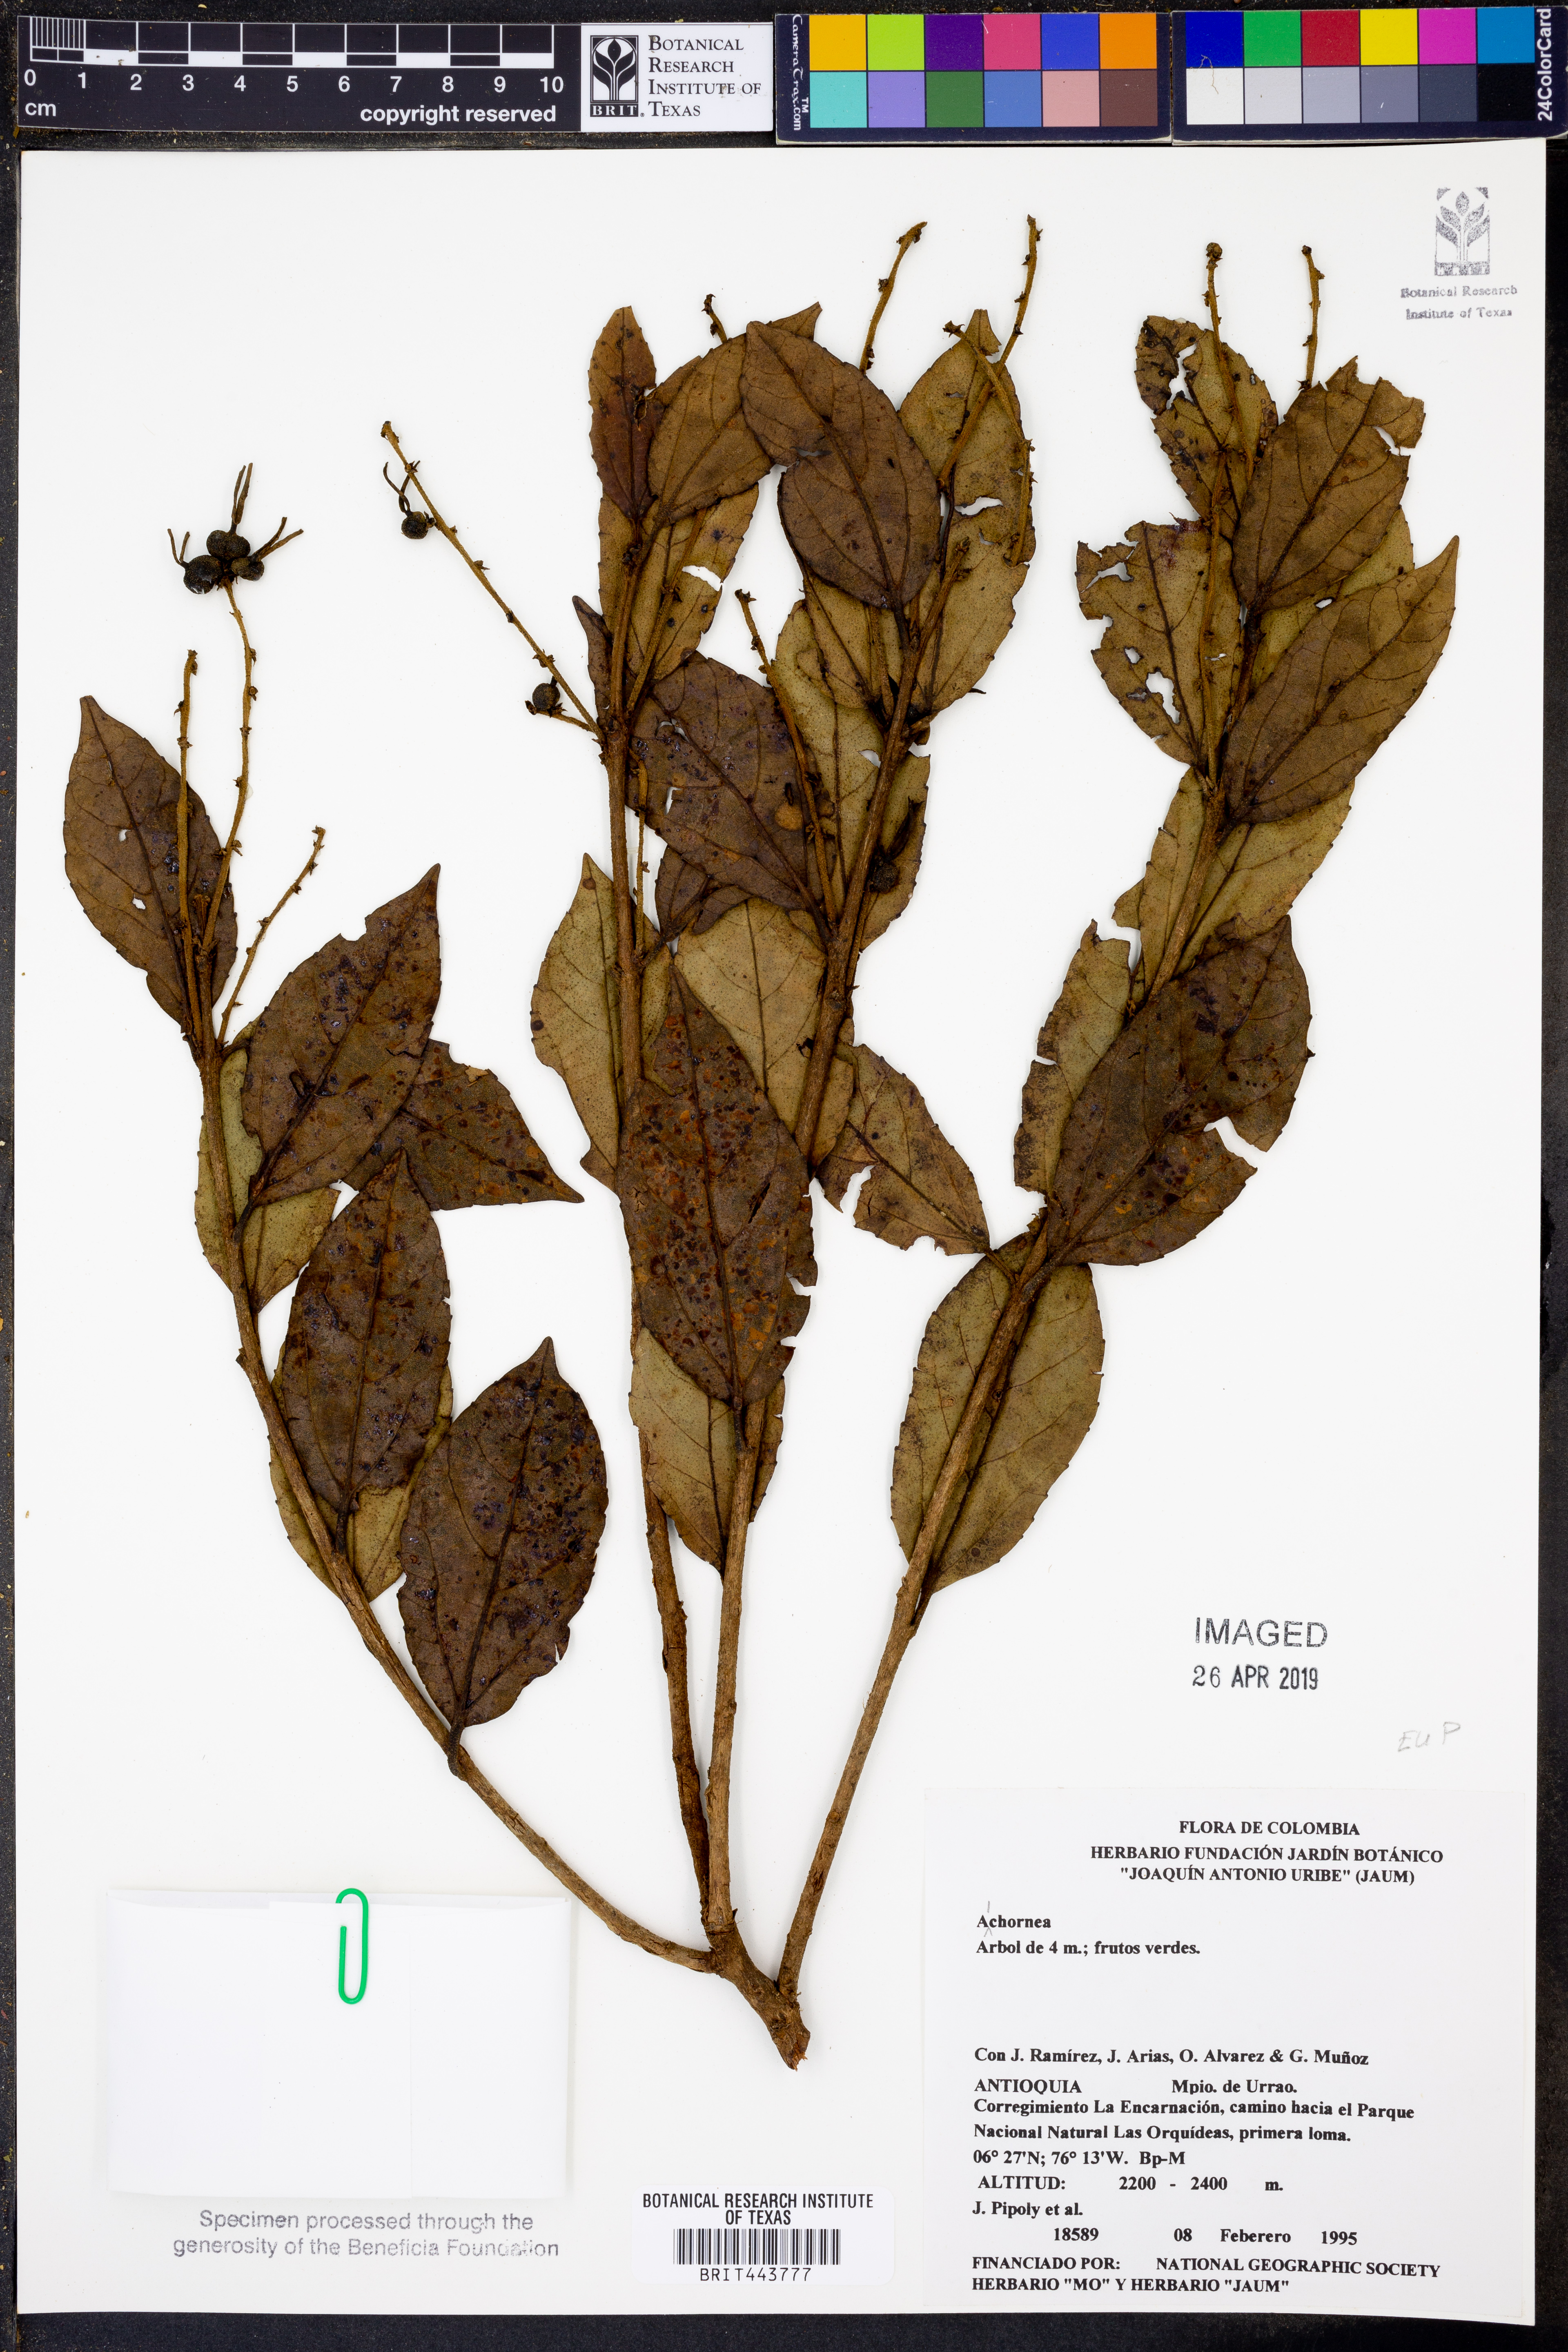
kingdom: Plantae
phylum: Tracheophyta
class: Magnoliopsida
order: Malpighiales
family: Euphorbiaceae
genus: Alchornea
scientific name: Alchornea
